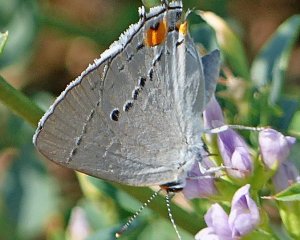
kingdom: Animalia
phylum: Arthropoda
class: Insecta
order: Lepidoptera
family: Lycaenidae
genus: Strymon
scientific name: Strymon melinus
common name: Gray Hairstreak
